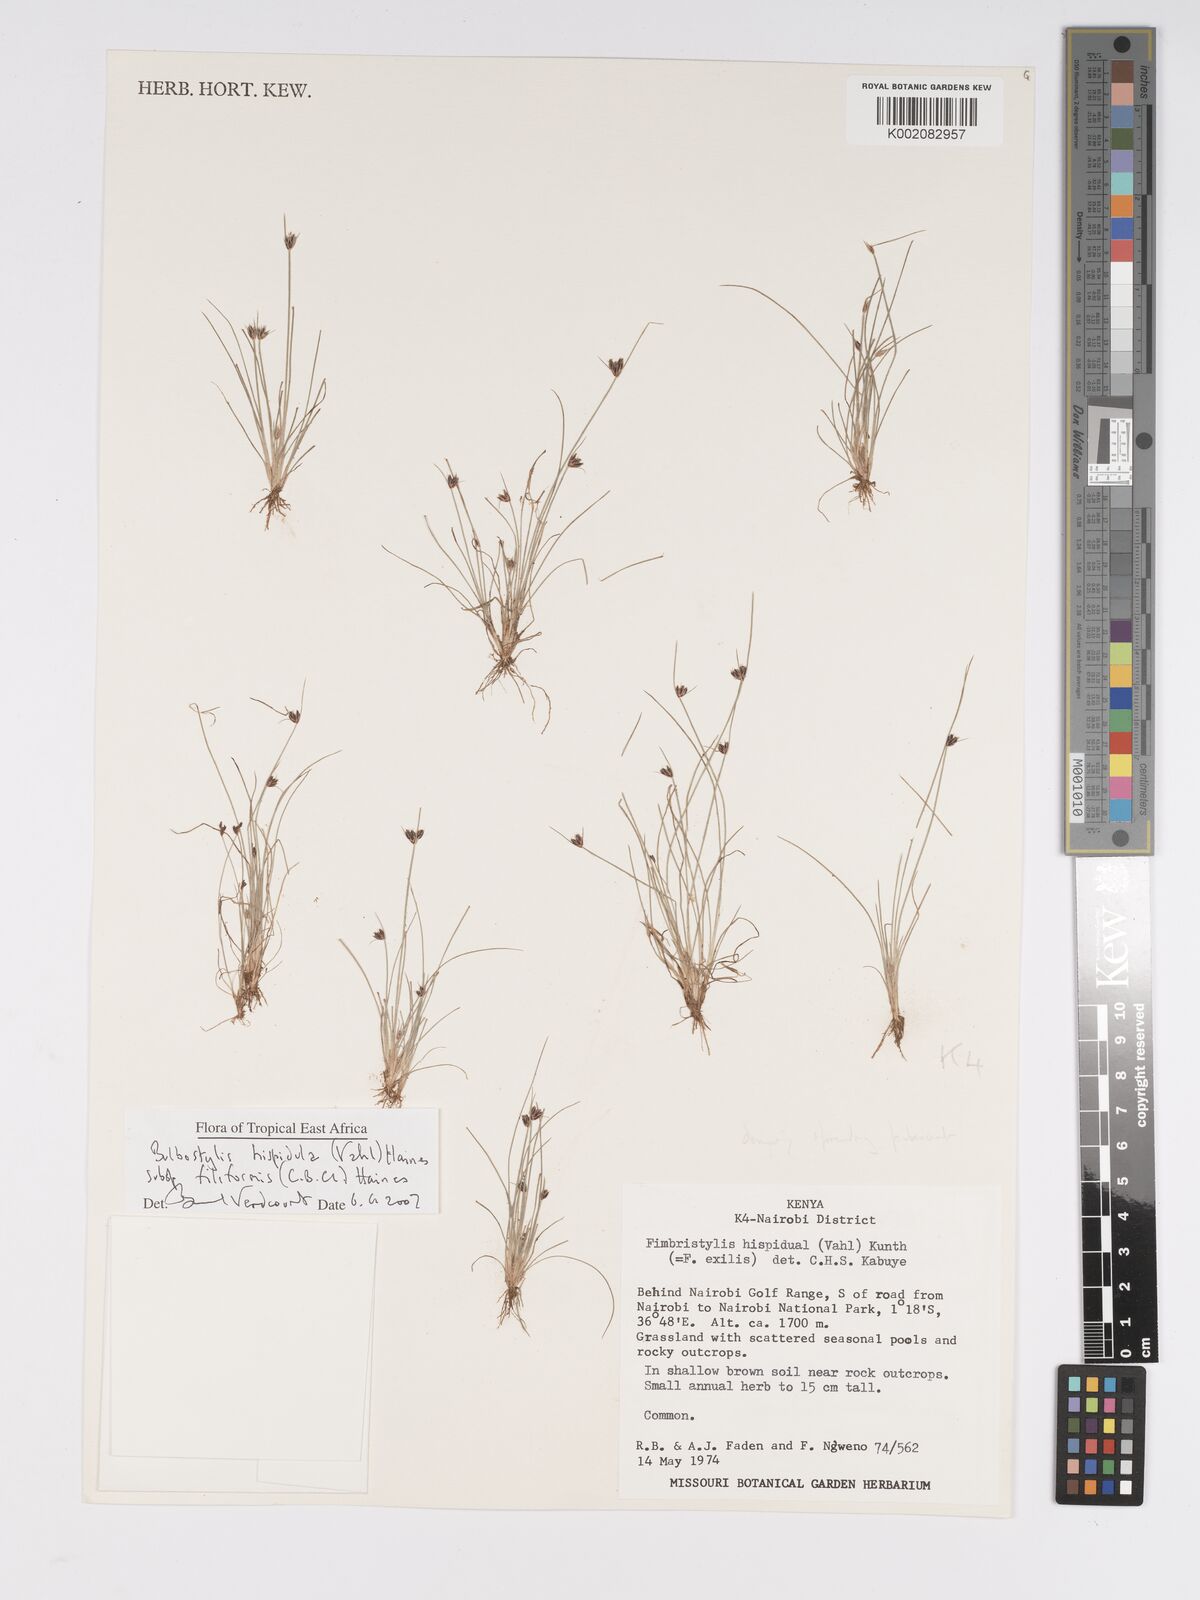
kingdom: Plantae
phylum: Tracheophyta
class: Liliopsida
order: Poales
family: Cyperaceae
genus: Bulbostylis
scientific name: Bulbostylis hispidula
